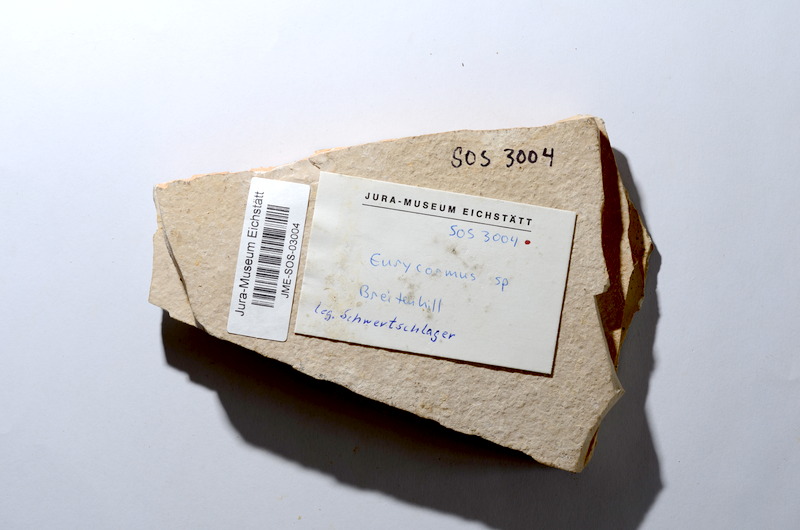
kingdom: Animalia
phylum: Chordata
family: Eurycormidae
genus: Eurycormus
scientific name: Eurycormus
